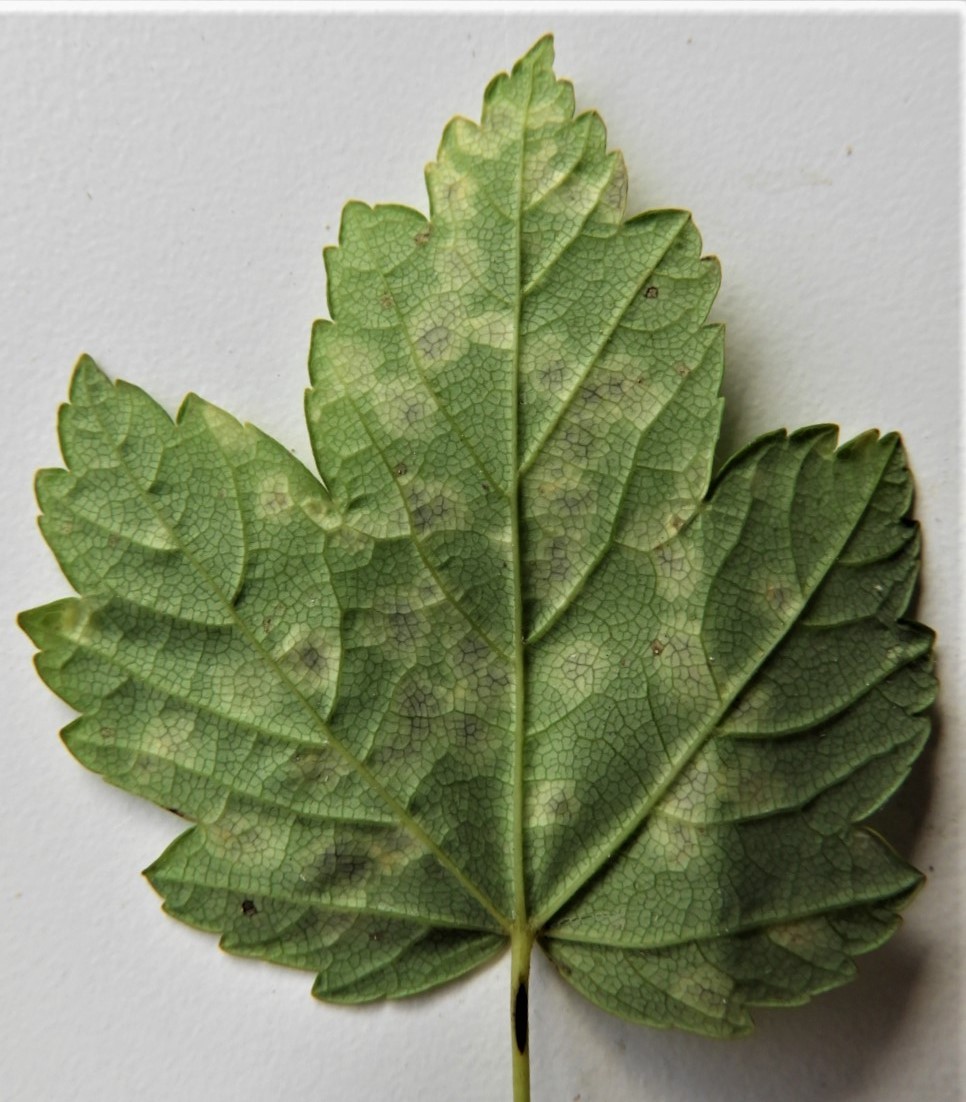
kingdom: Fungi
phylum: Ascomycota
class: Leotiomycetes
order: Rhytismatales
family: Rhytismataceae
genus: Rhytisma
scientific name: Rhytisma acerinum
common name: ahorn-rynkeplet
